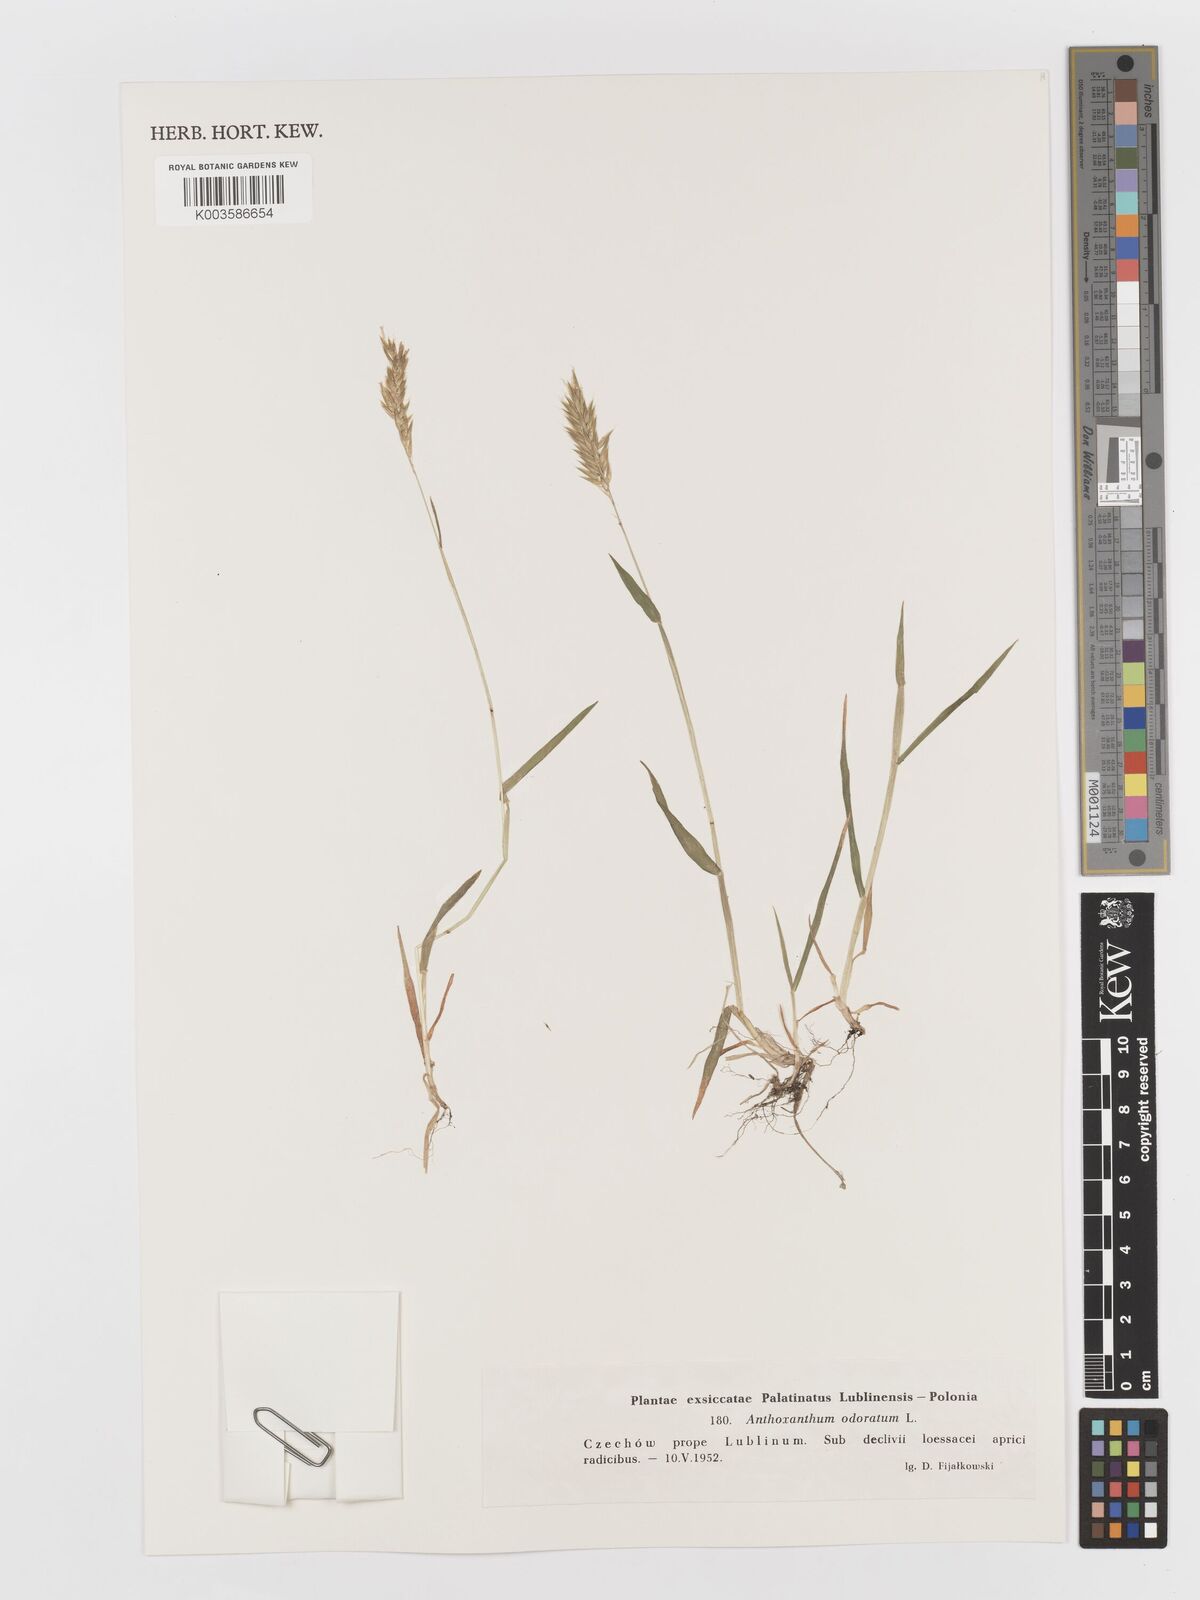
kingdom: Plantae
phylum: Tracheophyta
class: Liliopsida
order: Poales
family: Poaceae
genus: Anthoxanthum
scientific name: Anthoxanthum odoratum
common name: Sweet vernalgrass
